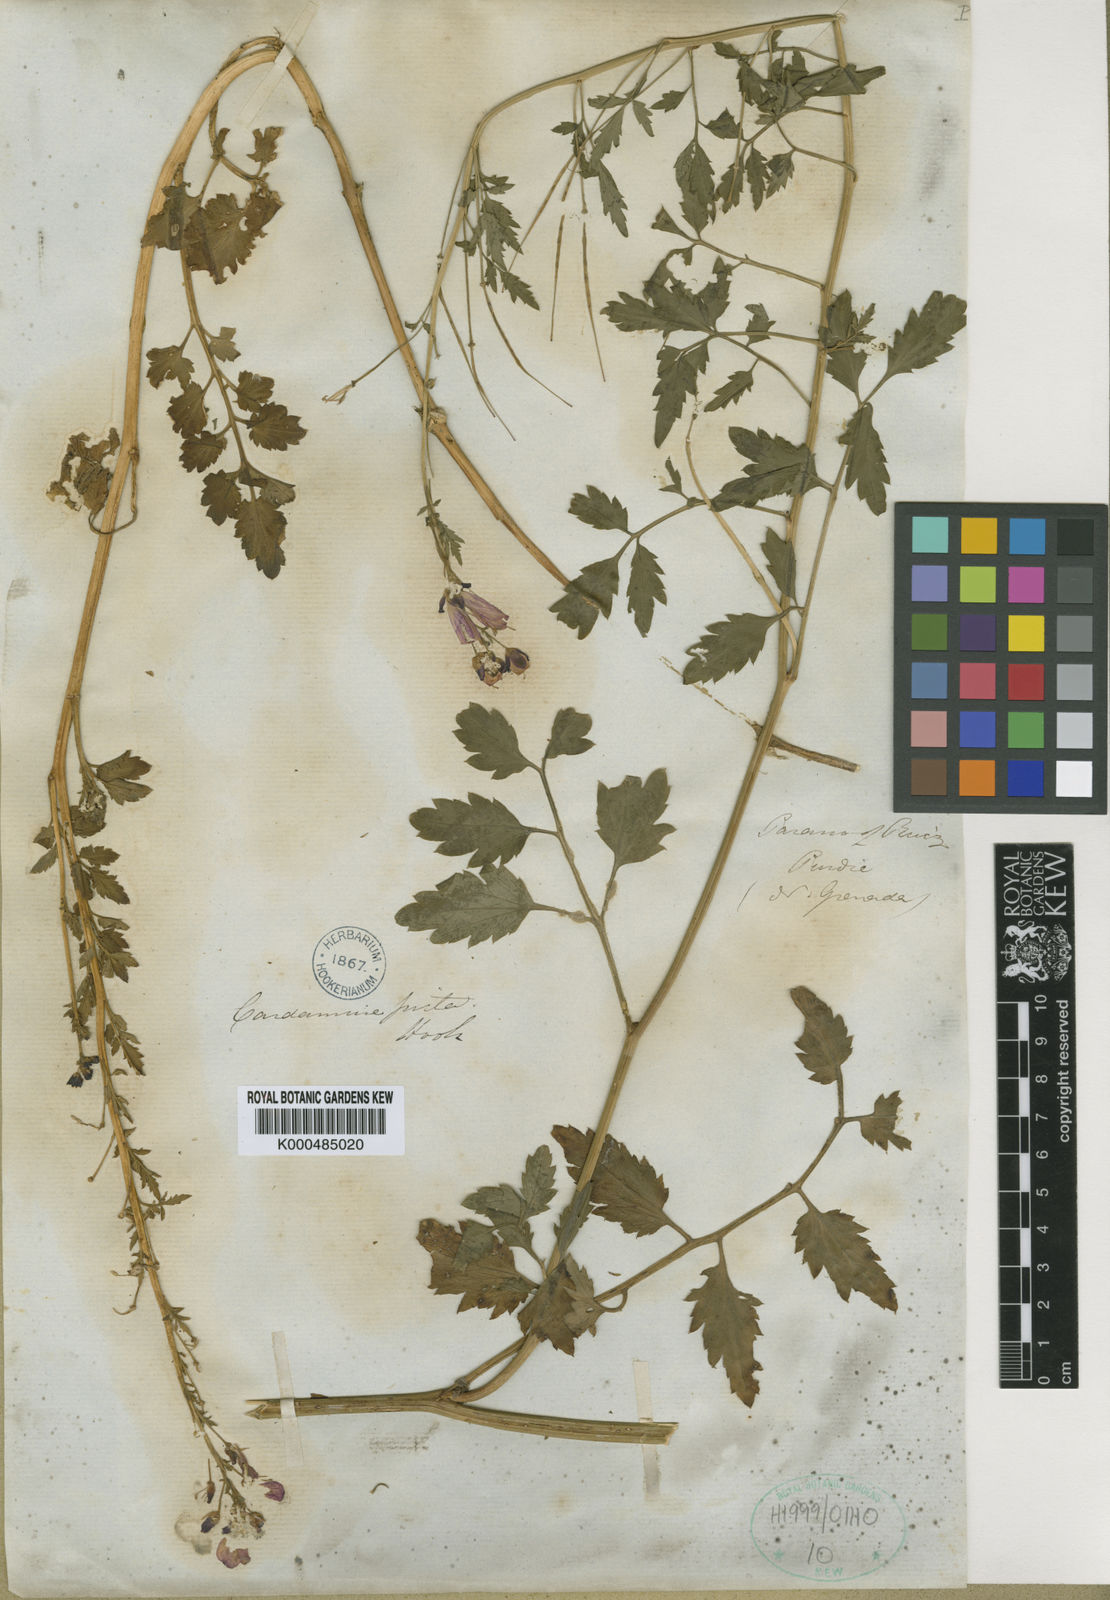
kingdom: Plantae
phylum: Tracheophyta
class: Magnoliopsida
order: Brassicales
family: Brassicaceae
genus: Cardamine
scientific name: Cardamine picta
